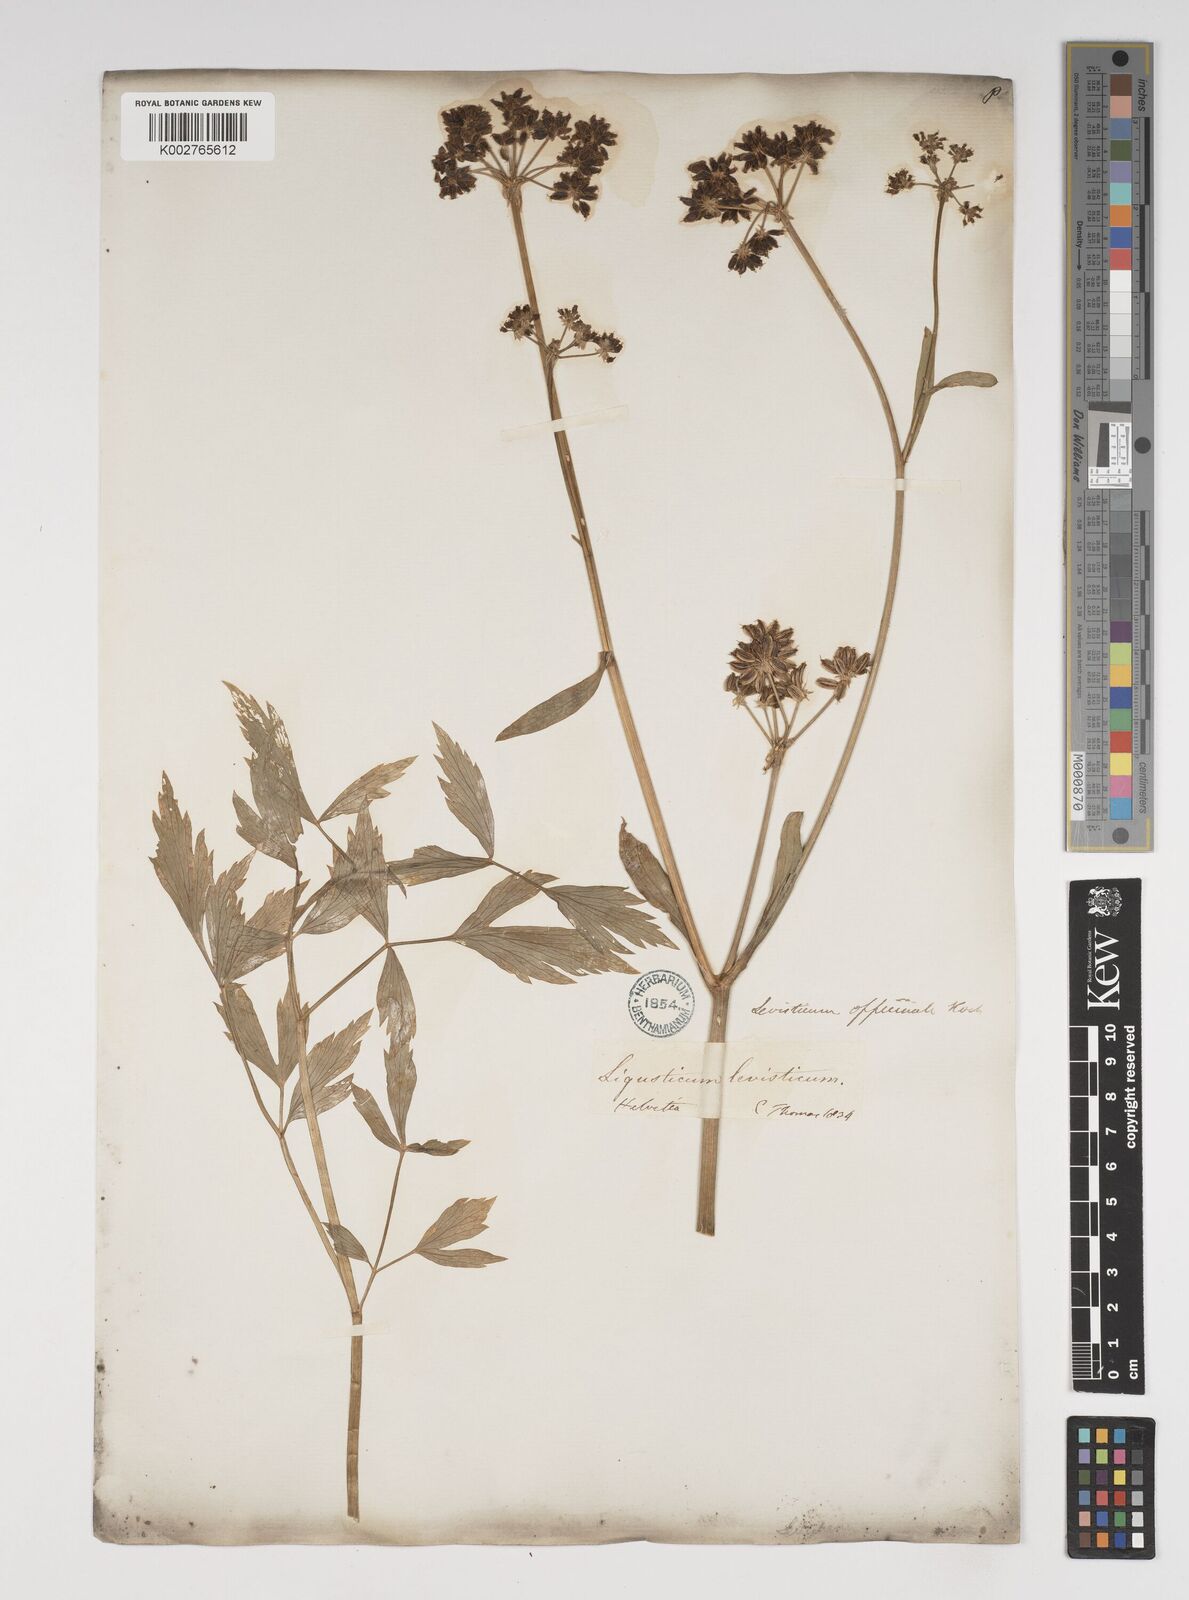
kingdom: Plantae
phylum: Tracheophyta
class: Magnoliopsida
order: Apiales
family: Apiaceae
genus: Levisticum
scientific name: Levisticum officinale
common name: Lovage
